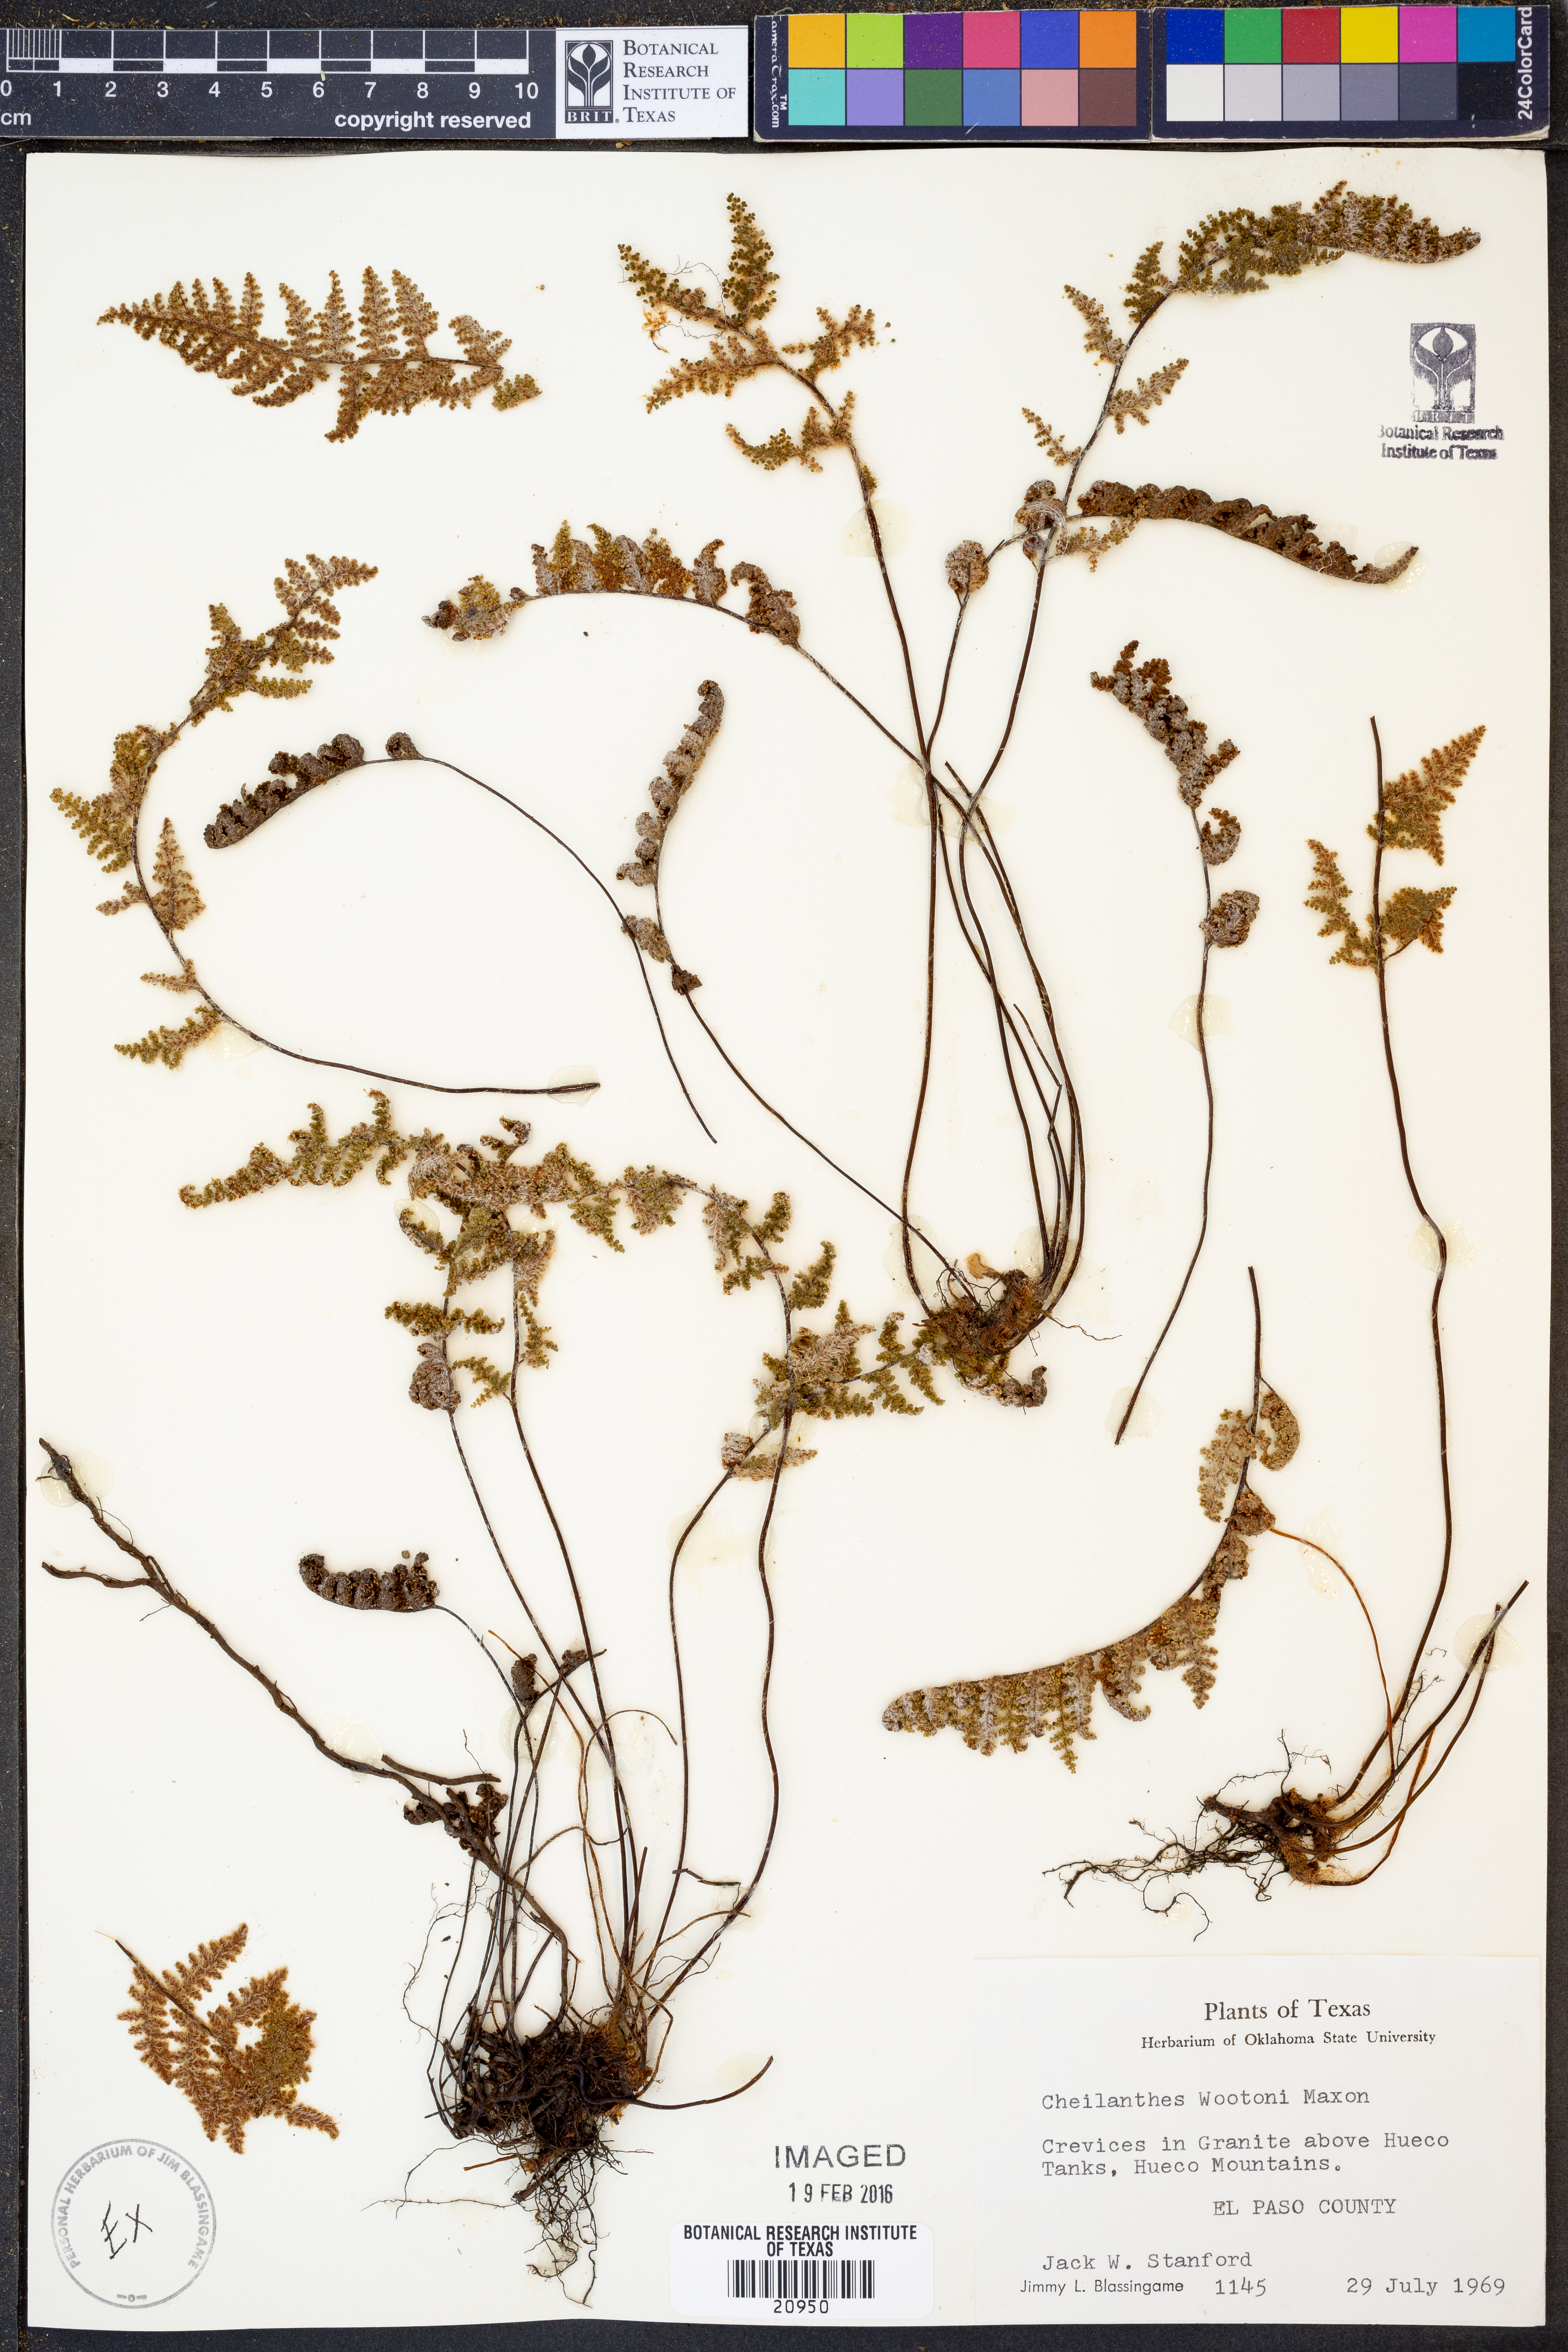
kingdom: Plantae
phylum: Tracheophyta
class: Polypodiopsida
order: Polypodiales
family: Pteridaceae
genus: Myriopteris
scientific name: Myriopteris wootonii
